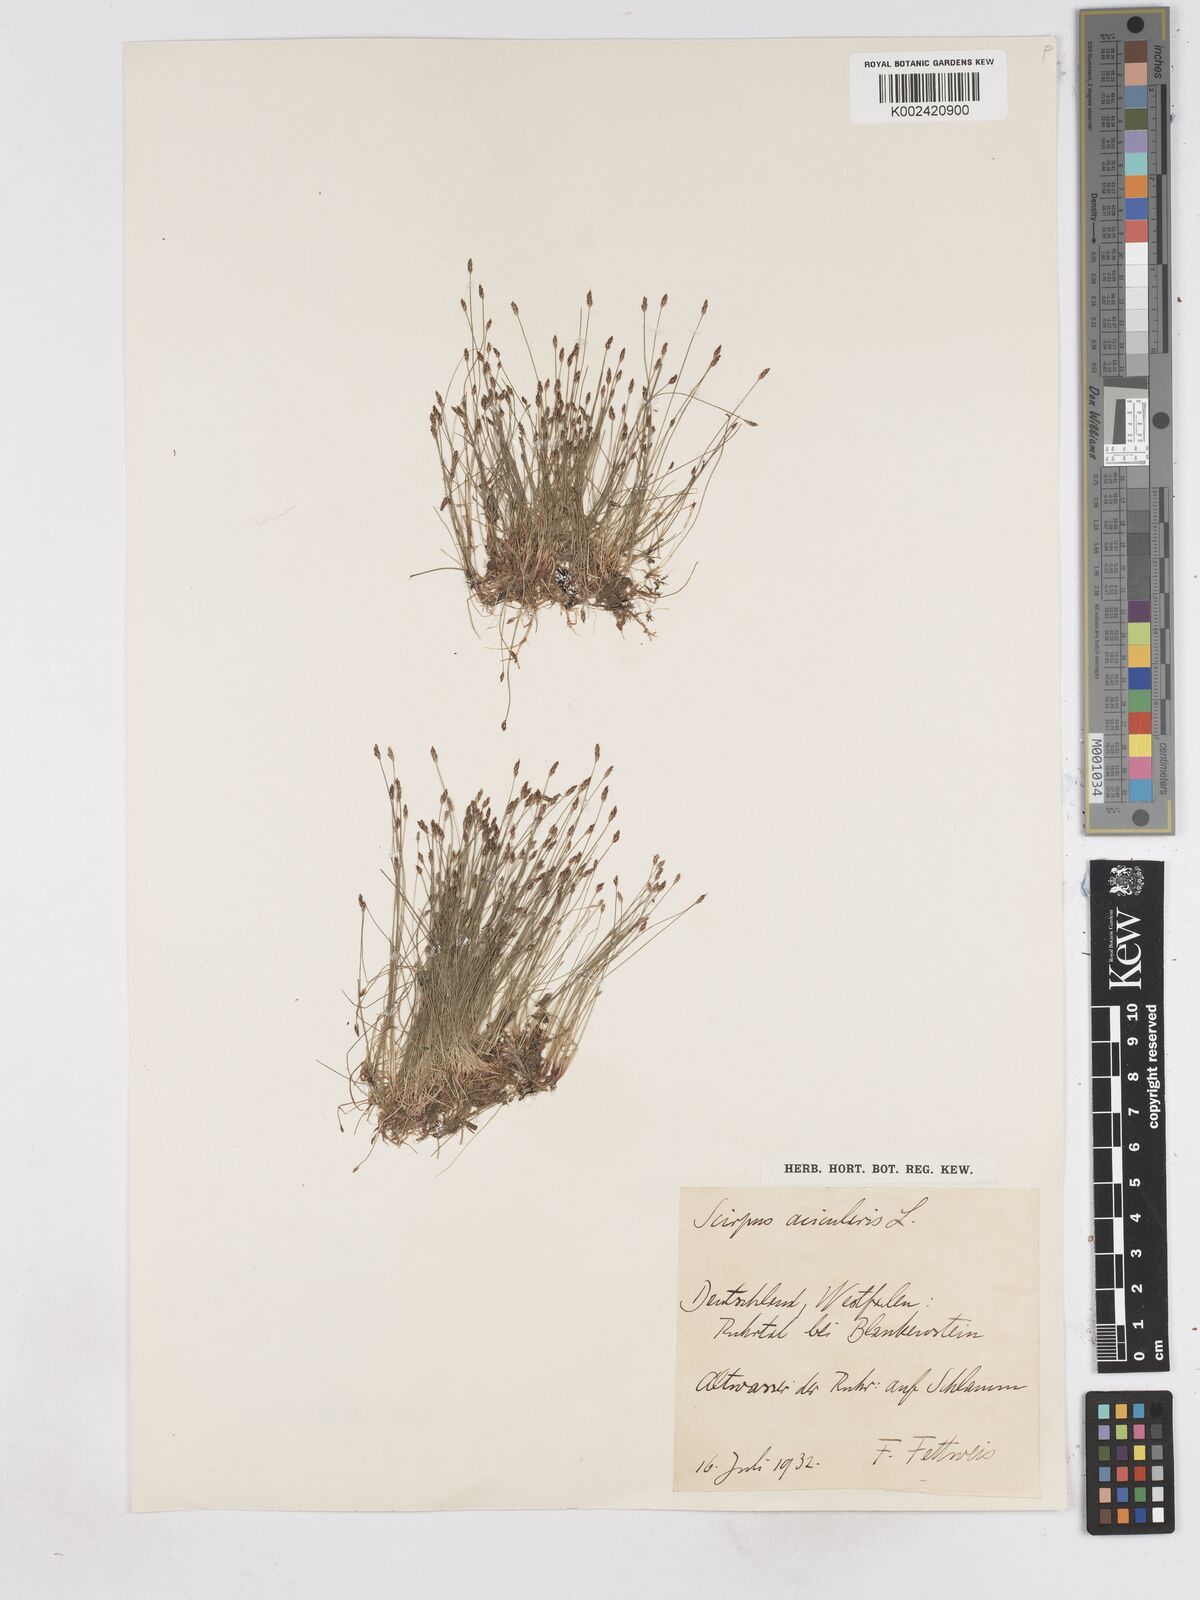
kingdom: Plantae
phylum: Tracheophyta
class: Liliopsida
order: Poales
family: Cyperaceae
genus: Eleocharis
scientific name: Eleocharis acicularis
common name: Needle spike-rush
